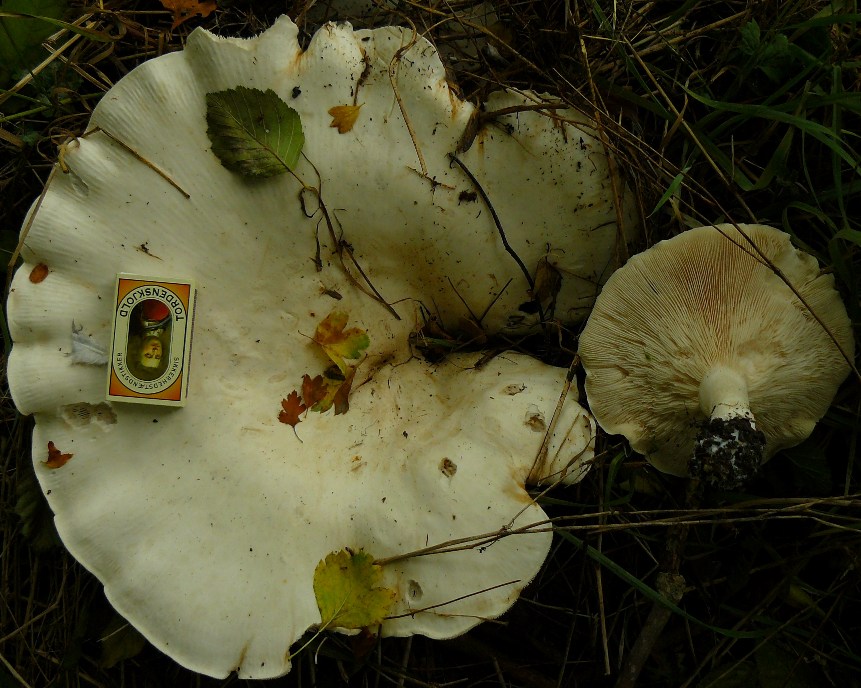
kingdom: Fungi
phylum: Basidiomycota
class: Agaricomycetes
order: Agaricales
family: Tricholomataceae
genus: Aspropaxillus
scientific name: Aspropaxillus giganteus
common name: kæmpe-tragtridderhat
